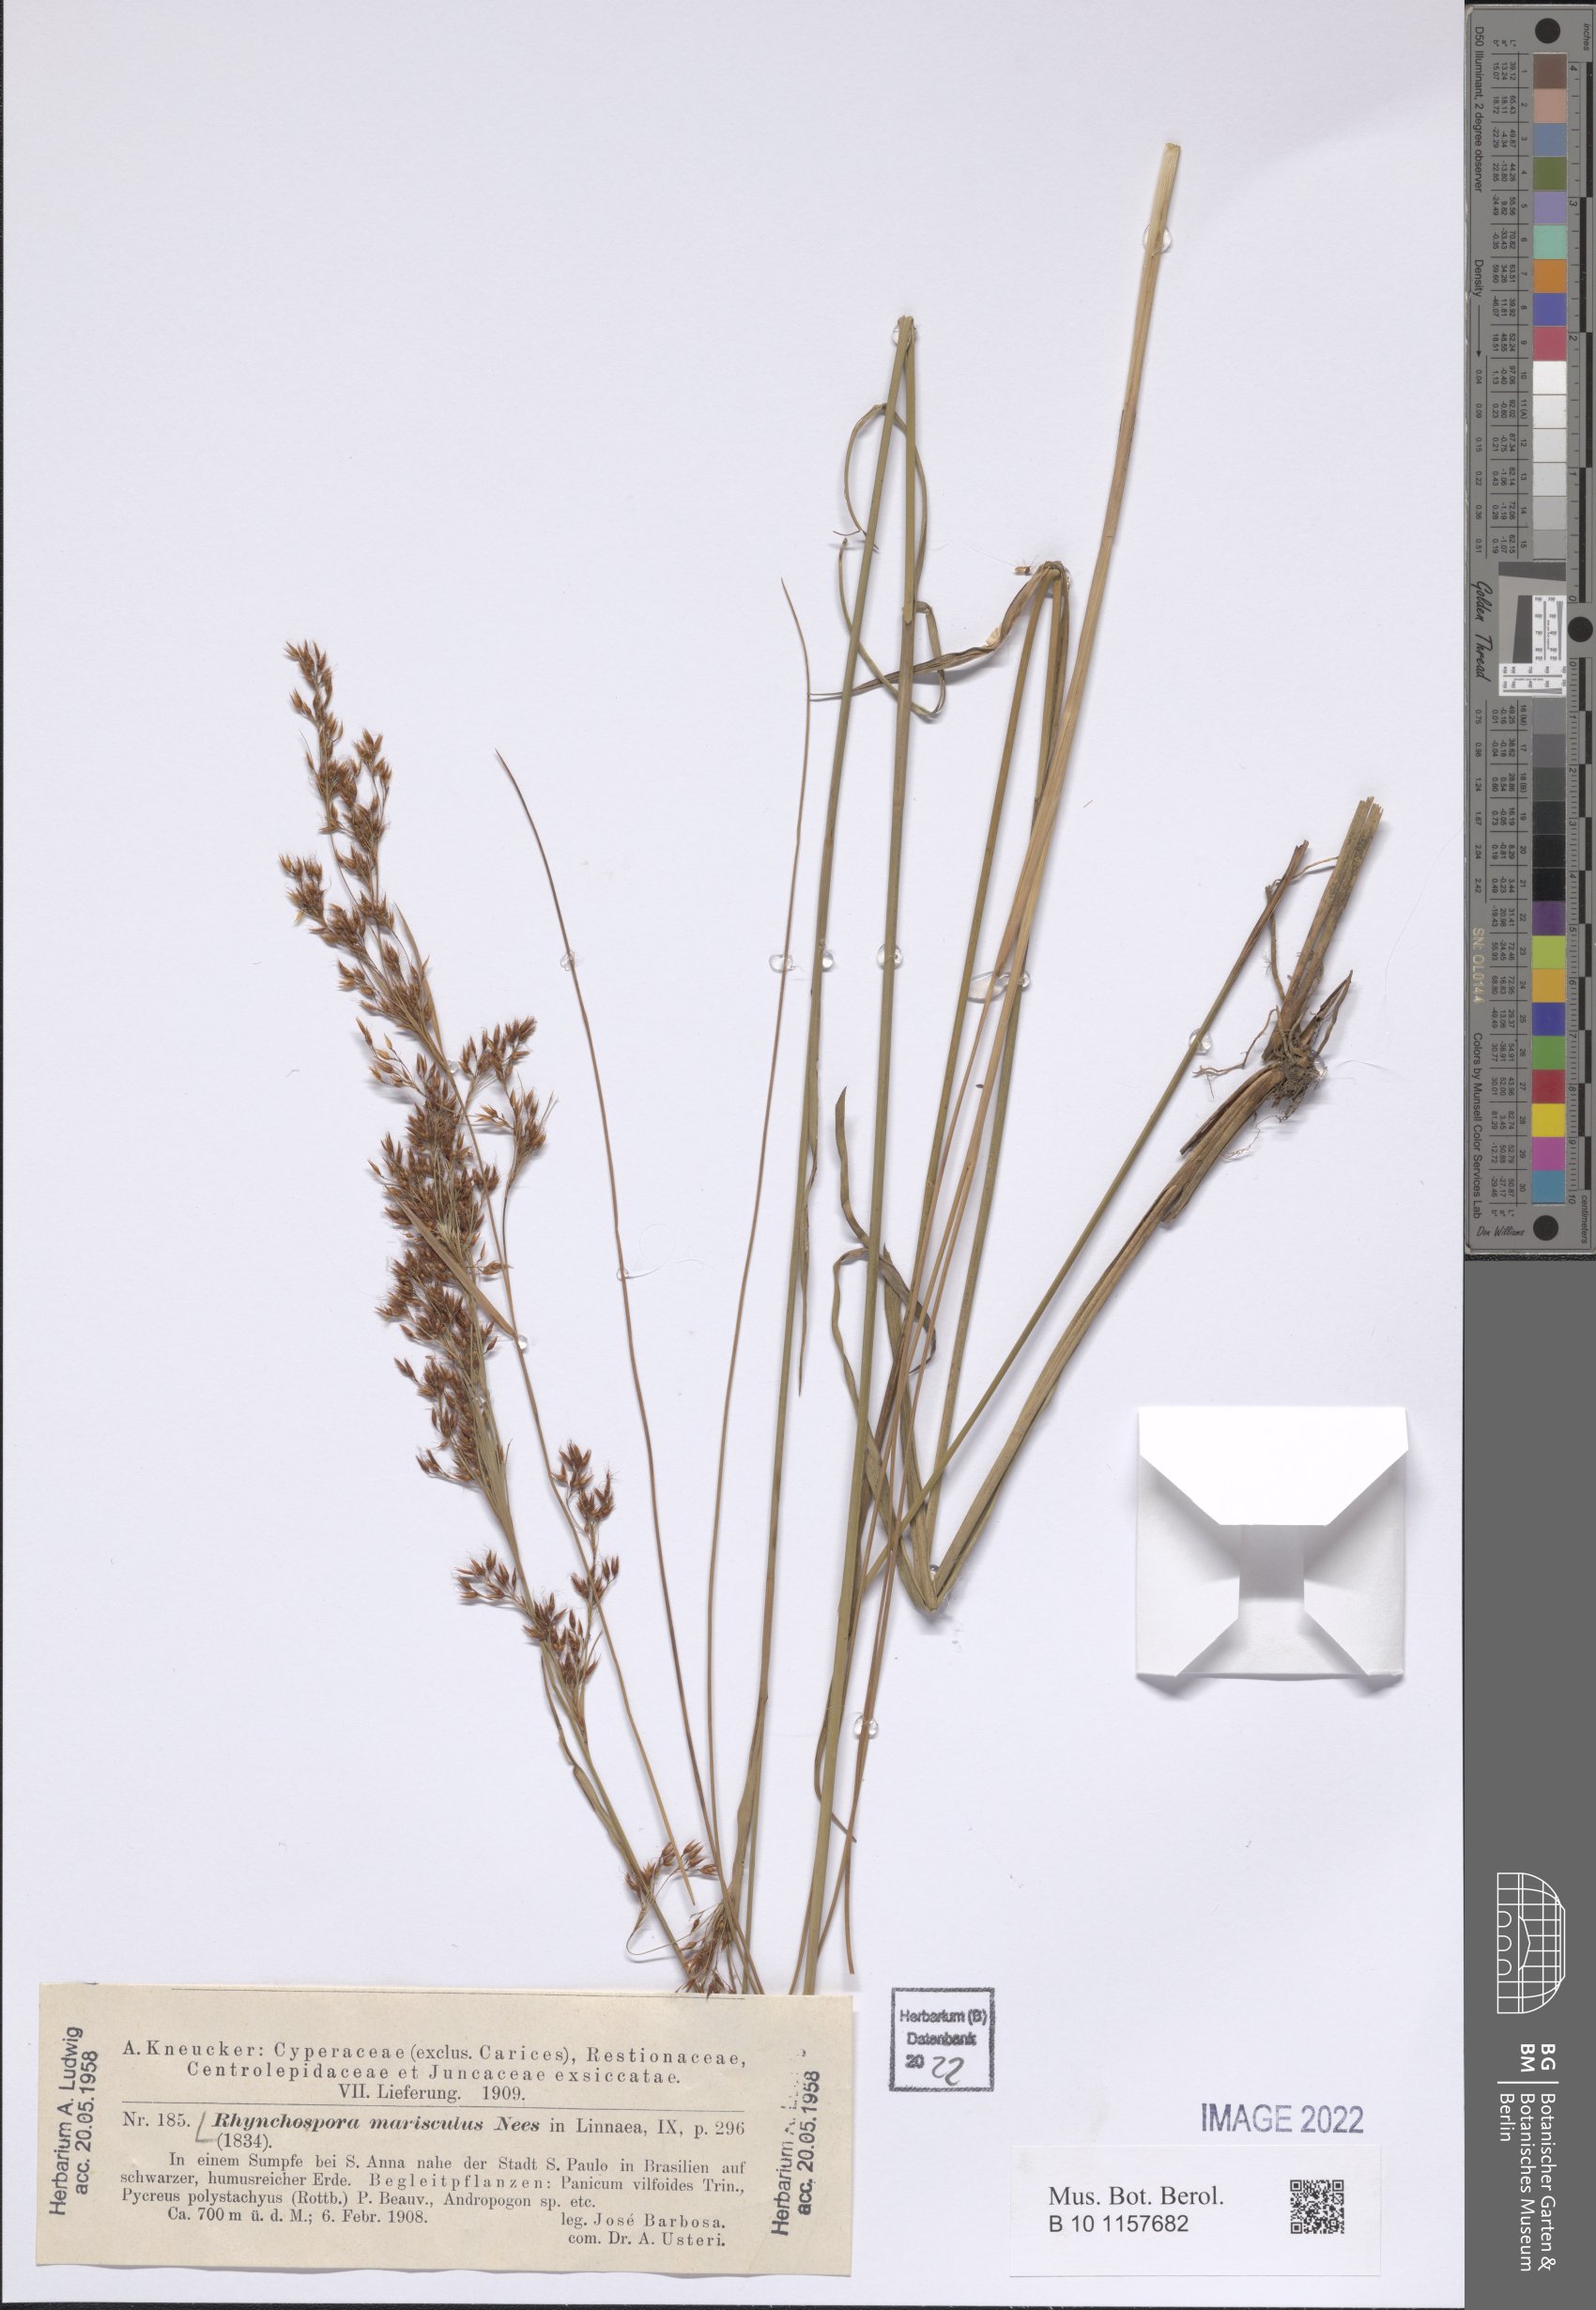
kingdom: Plantae
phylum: Tracheophyta
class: Liliopsida
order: Poales
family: Cyperaceae
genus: Rhynchospora
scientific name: Rhynchospora marisculus
